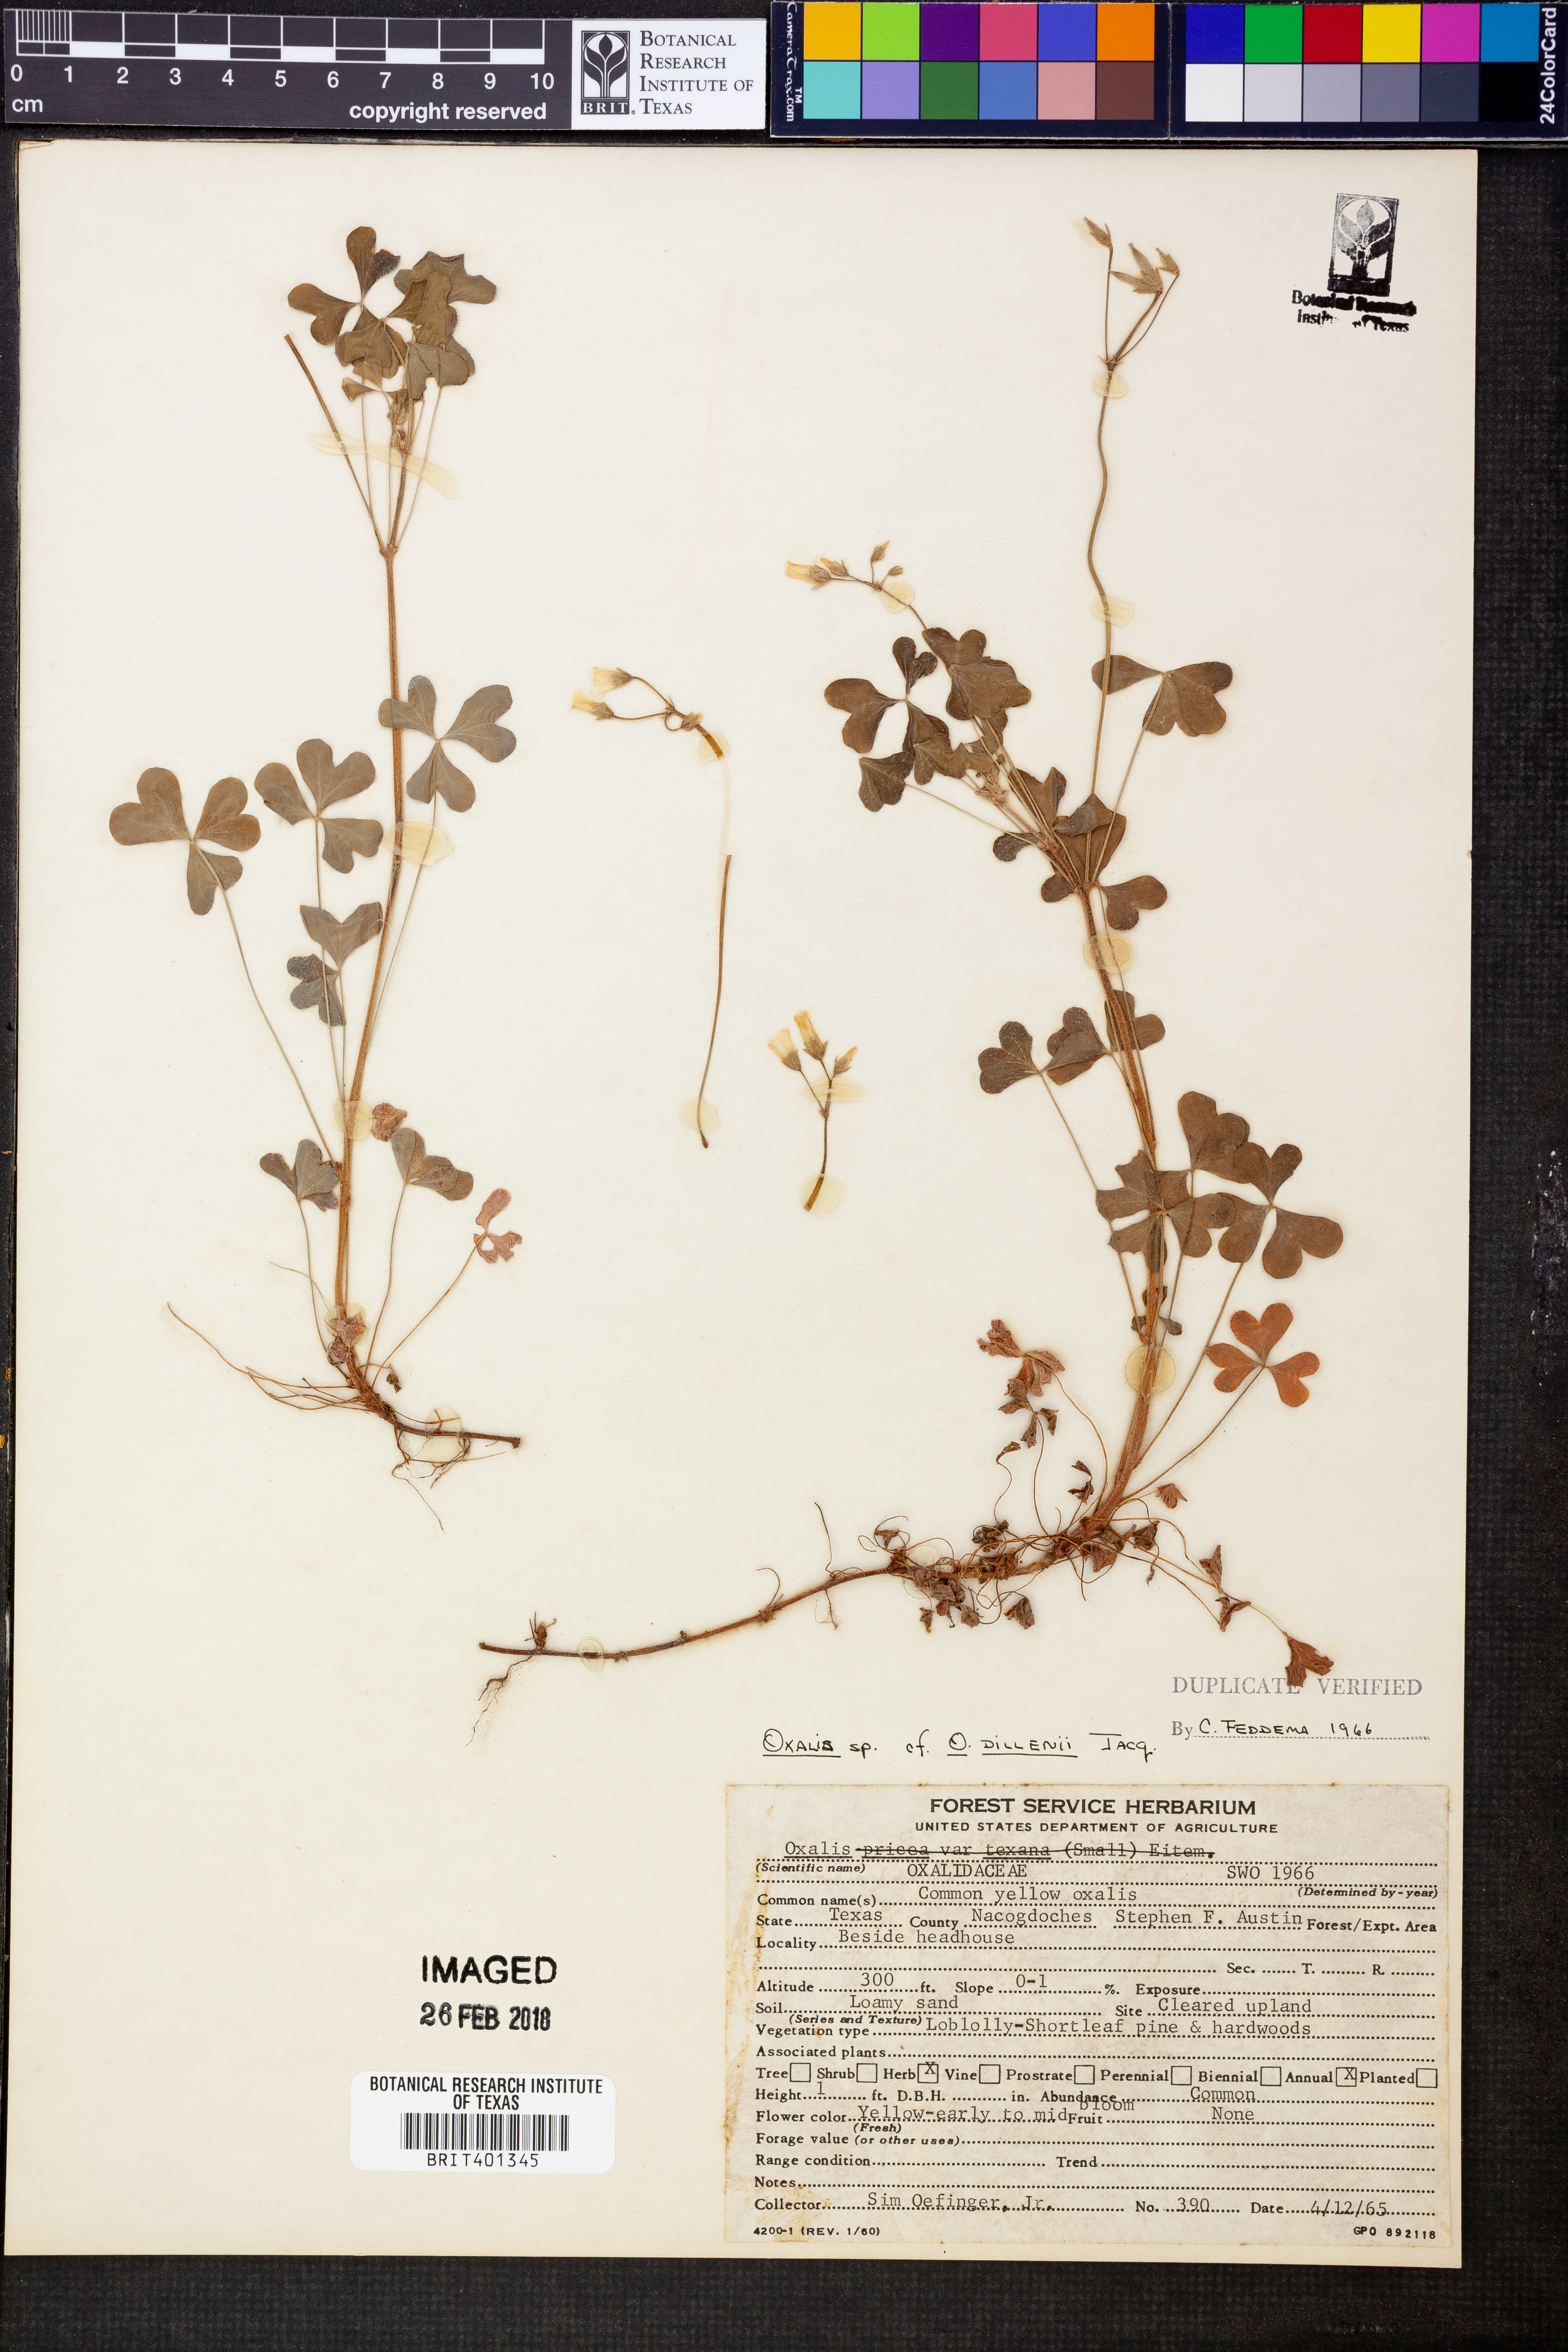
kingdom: Plantae
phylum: Tracheophyta
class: Magnoliopsida
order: Oxalidales
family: Oxalidaceae
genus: Oxalis
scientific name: Oxalis dillenii
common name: Sussex yellow-sorrel
